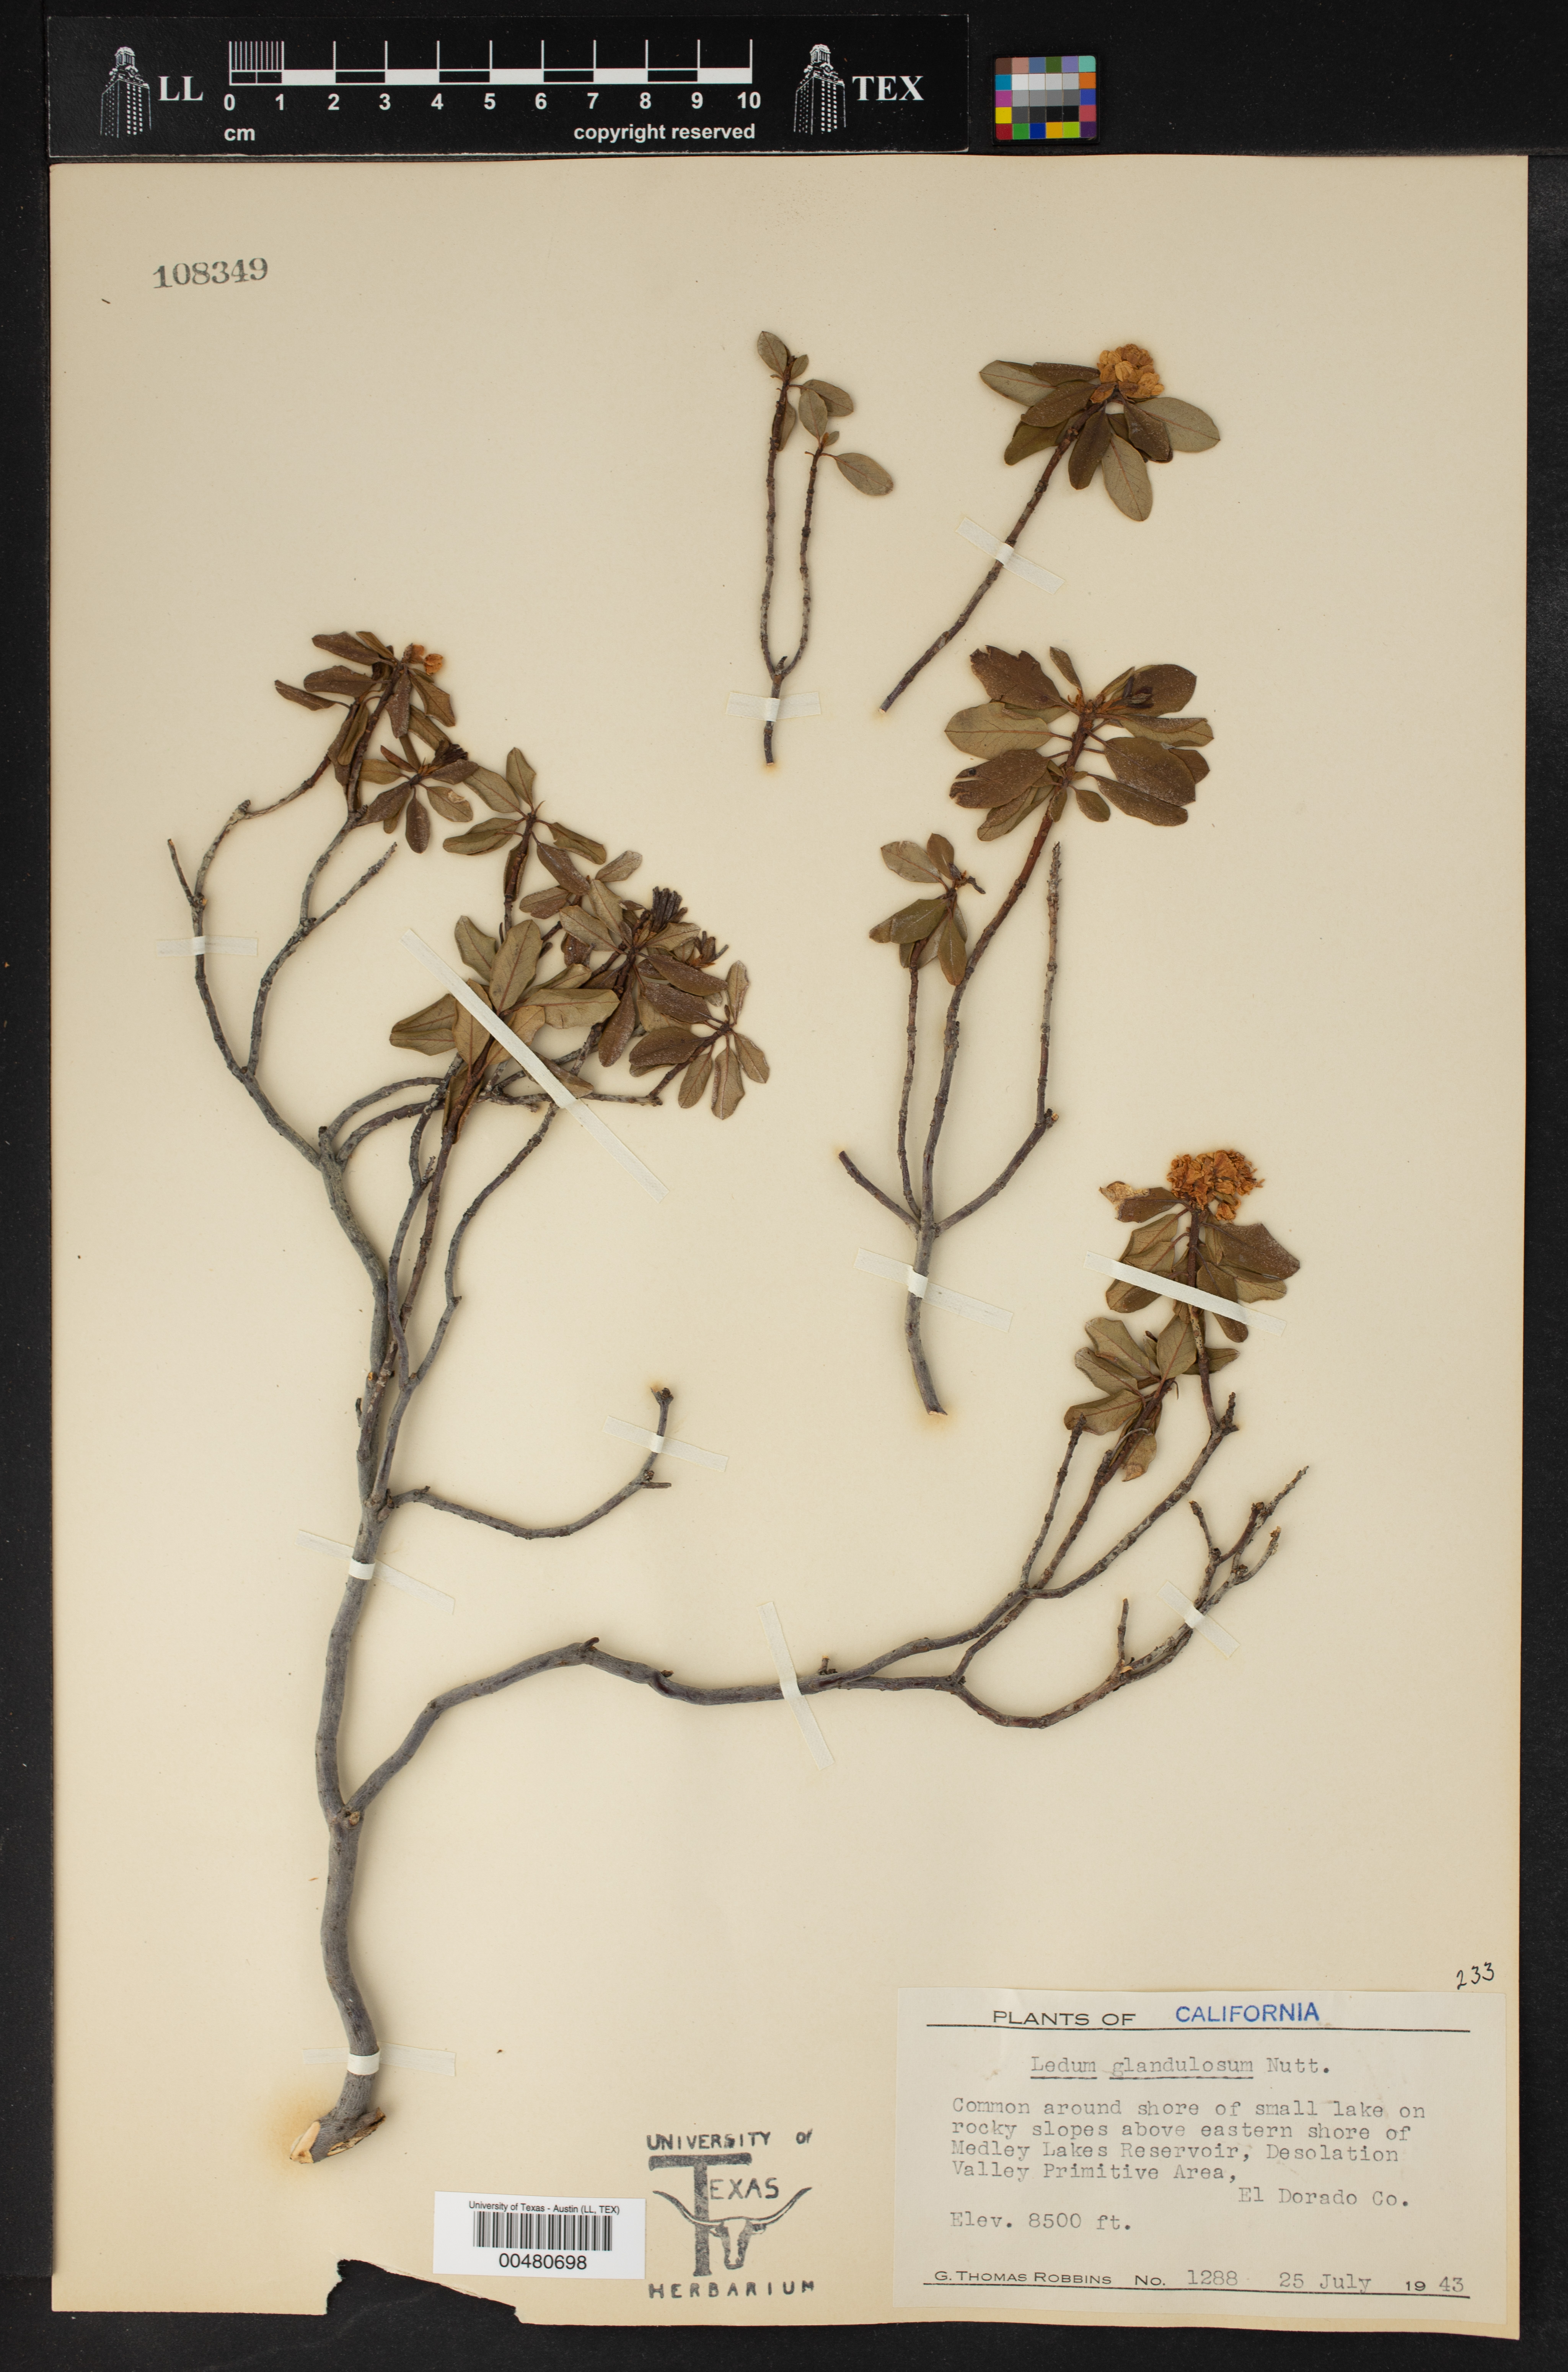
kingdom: Plantae
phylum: Tracheophyta
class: Magnoliopsida
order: Ericales
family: Ericaceae
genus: Rhododendron
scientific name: Rhododendron columbianum
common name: Western labrador tea
